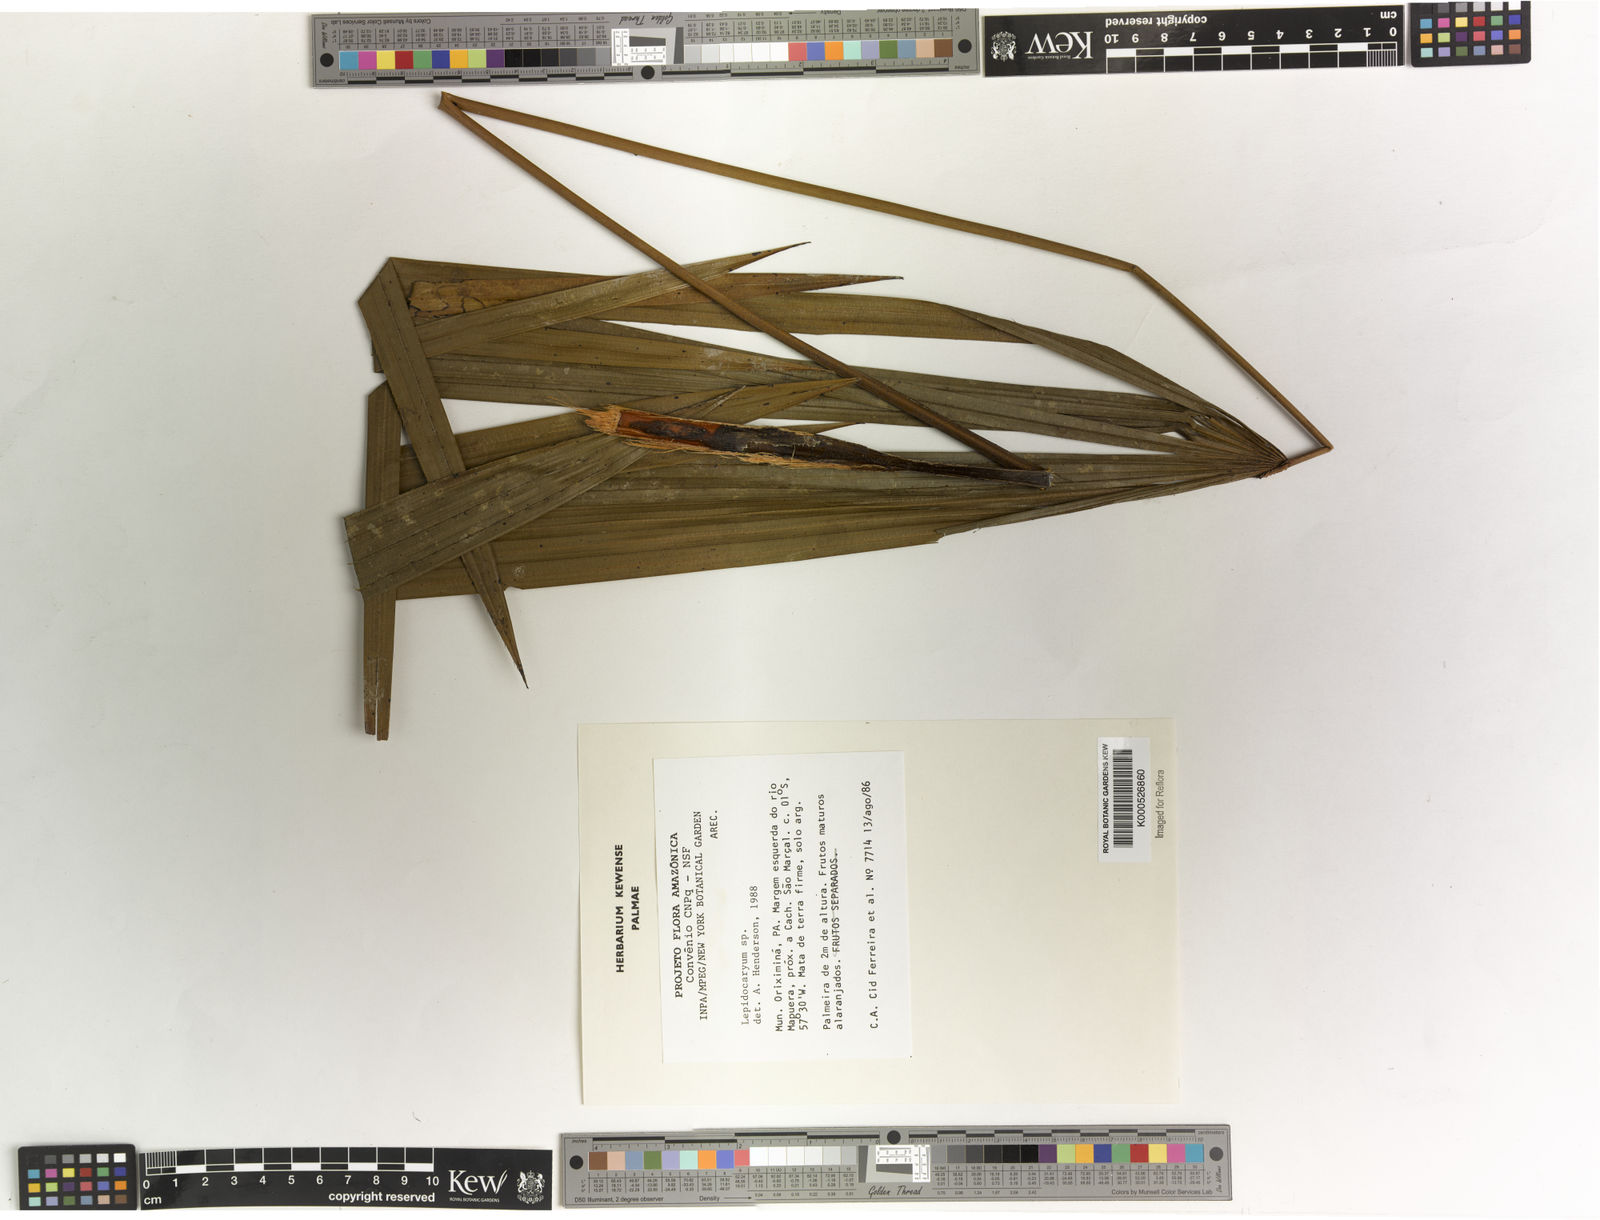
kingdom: Plantae
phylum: Tracheophyta
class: Liliopsida
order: Arecales
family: Arecaceae
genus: Lepidocaryum
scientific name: Lepidocaryum
